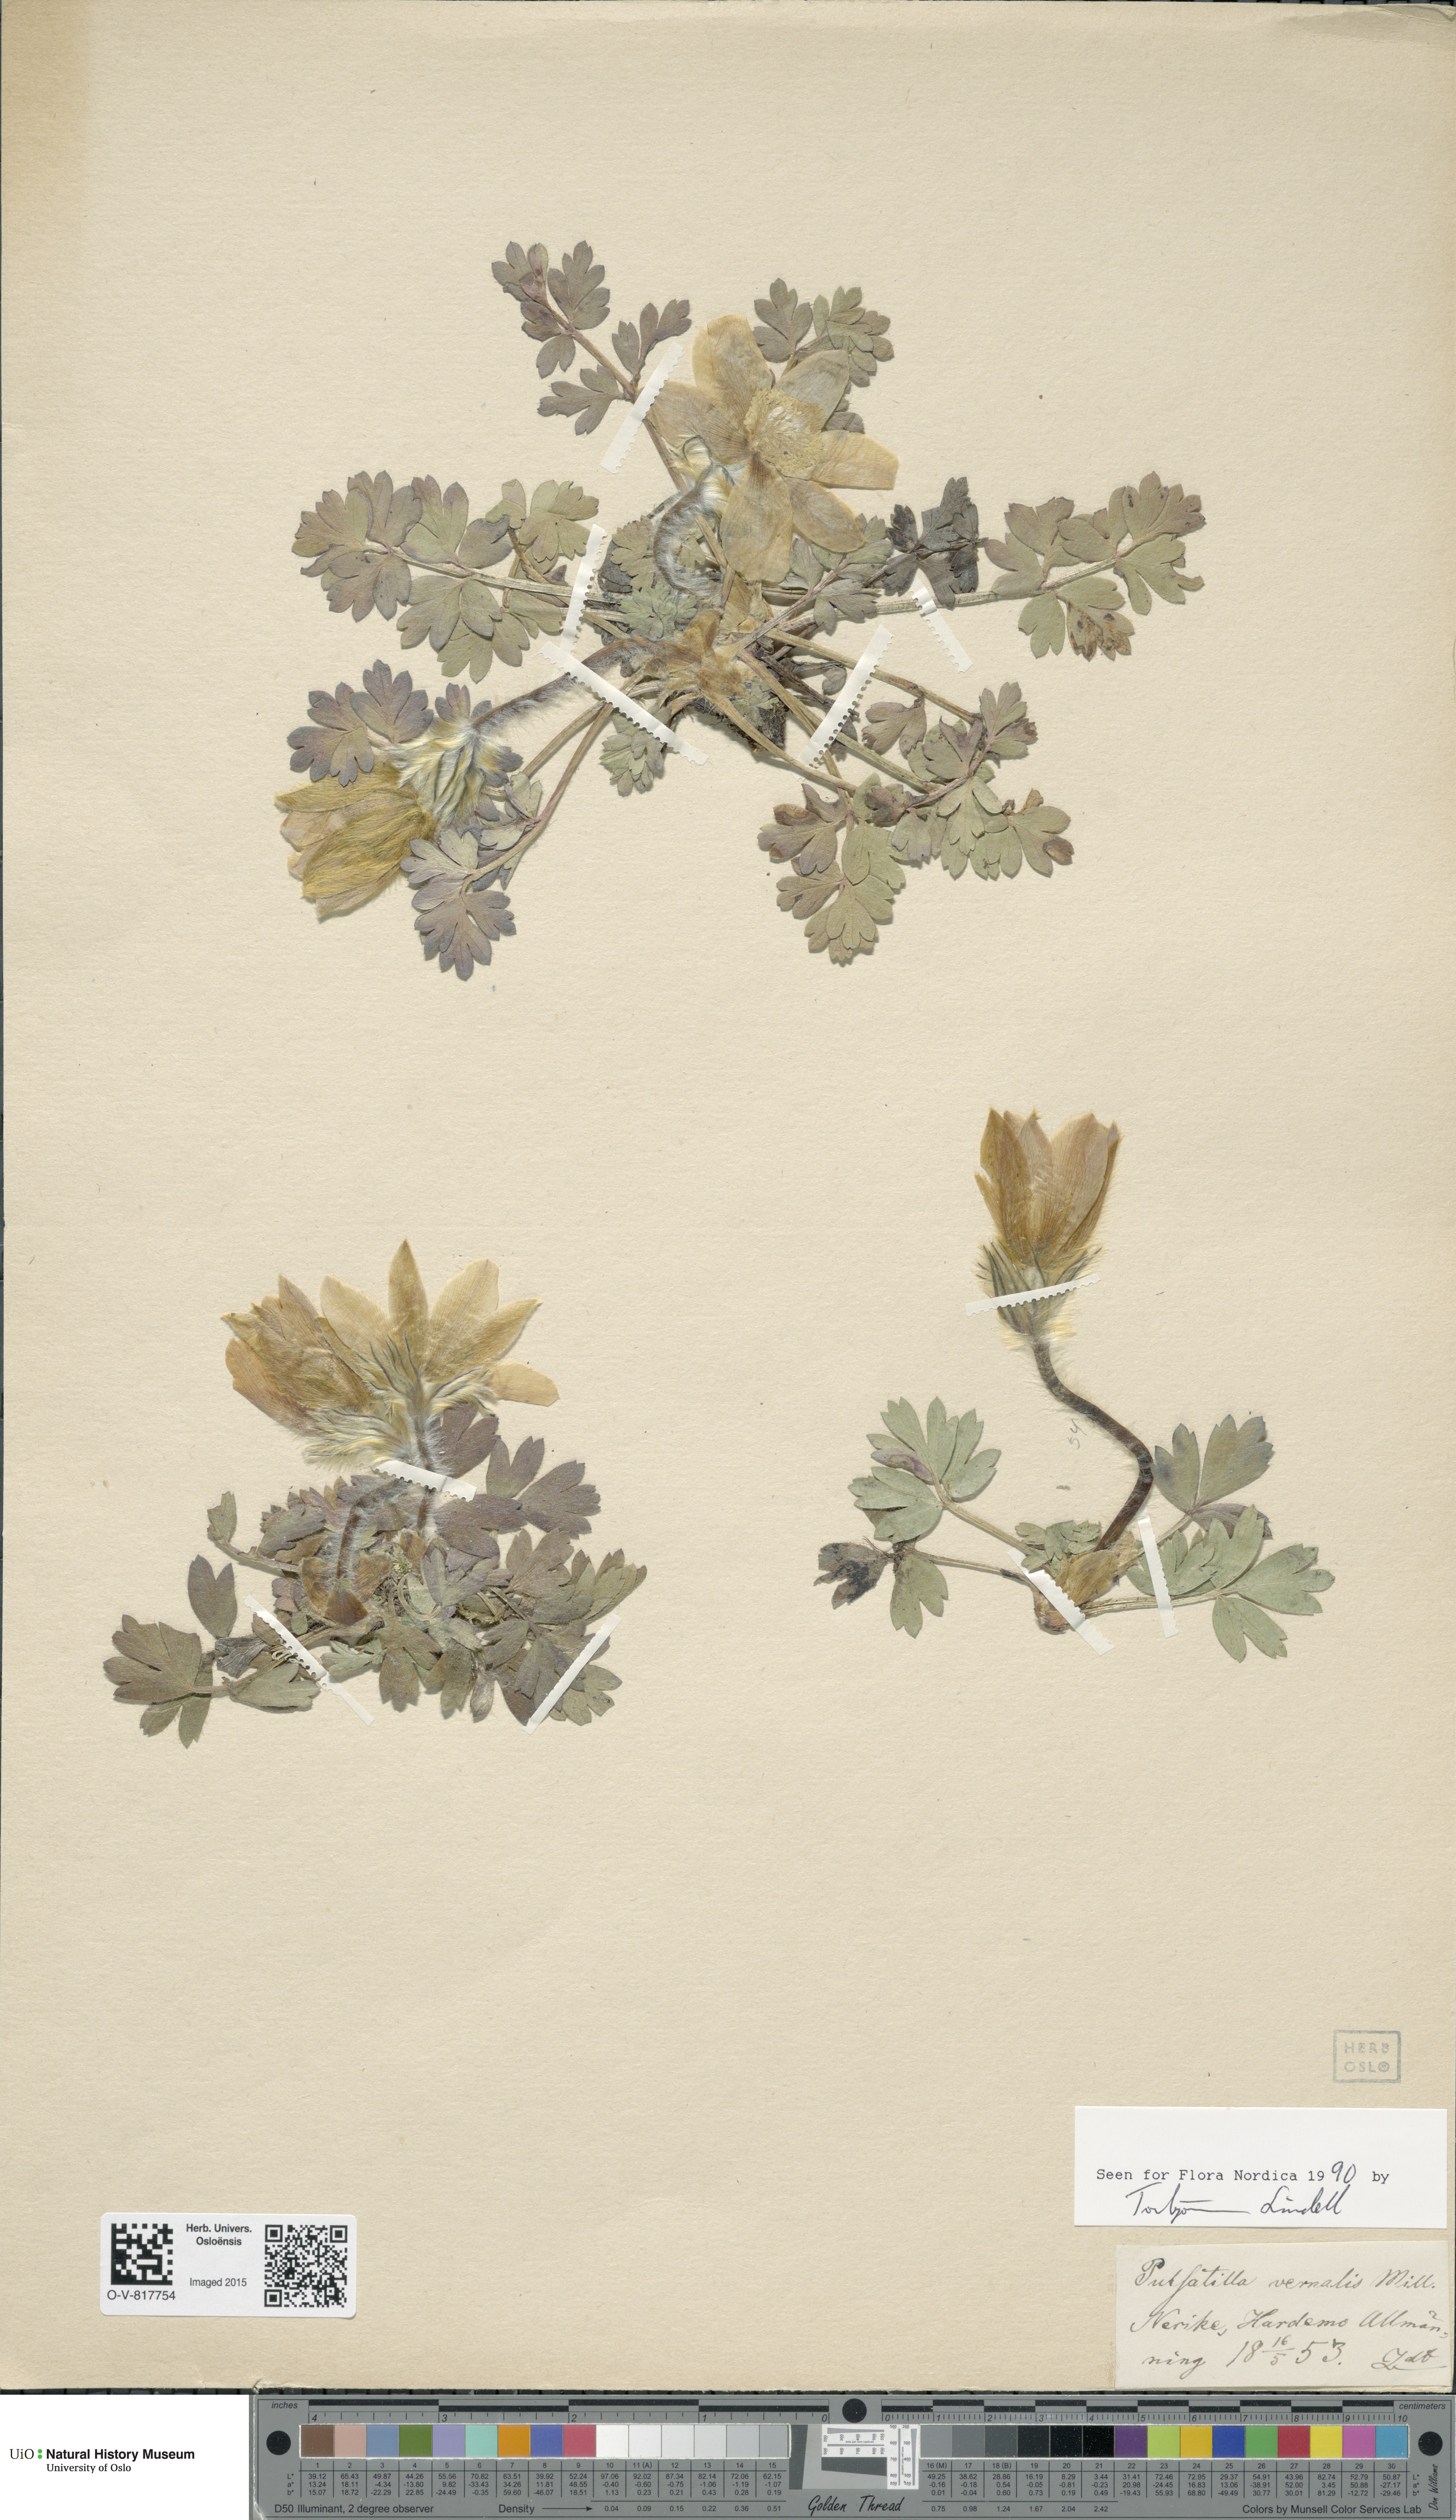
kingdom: Plantae
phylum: Tracheophyta
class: Magnoliopsida
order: Ranunculales
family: Ranunculaceae
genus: Pulsatilla
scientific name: Pulsatilla vernalis
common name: Spring pasque flower
